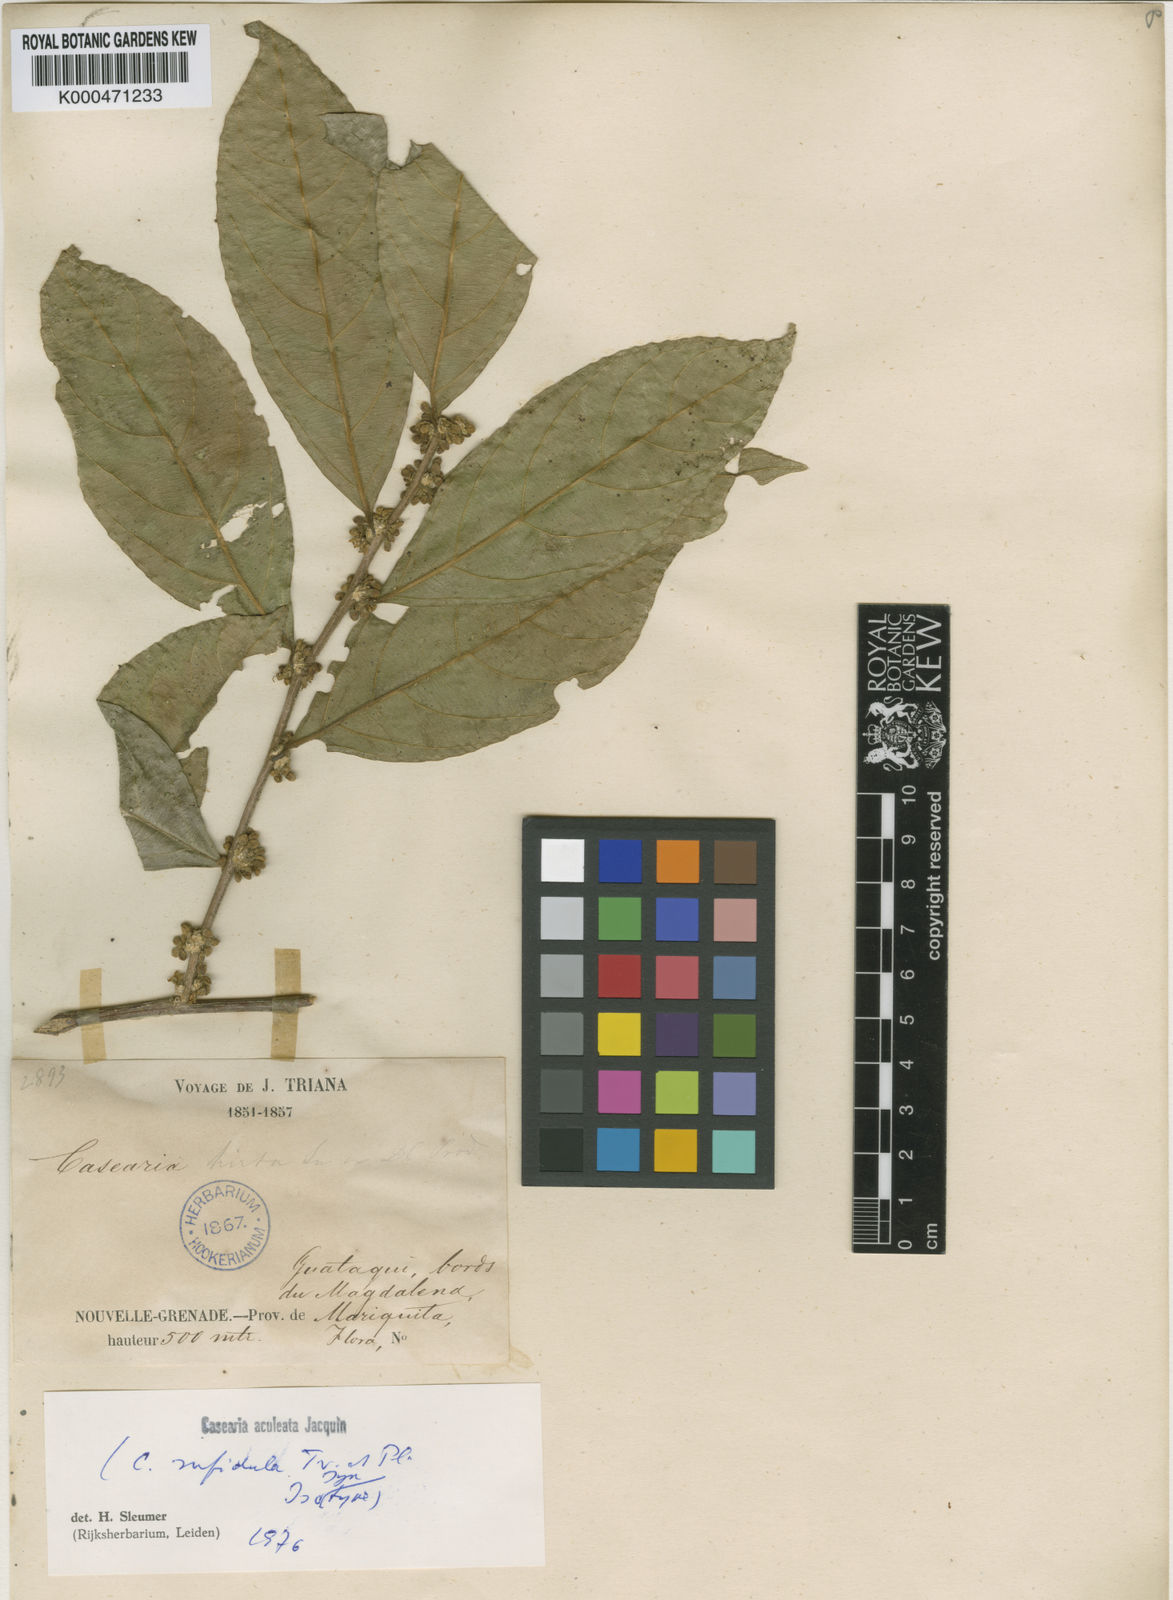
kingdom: Plantae
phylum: Tracheophyta
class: Magnoliopsida
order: Malpighiales
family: Salicaceae
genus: Casearia
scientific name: Casearia aculeata
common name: Cockspur
